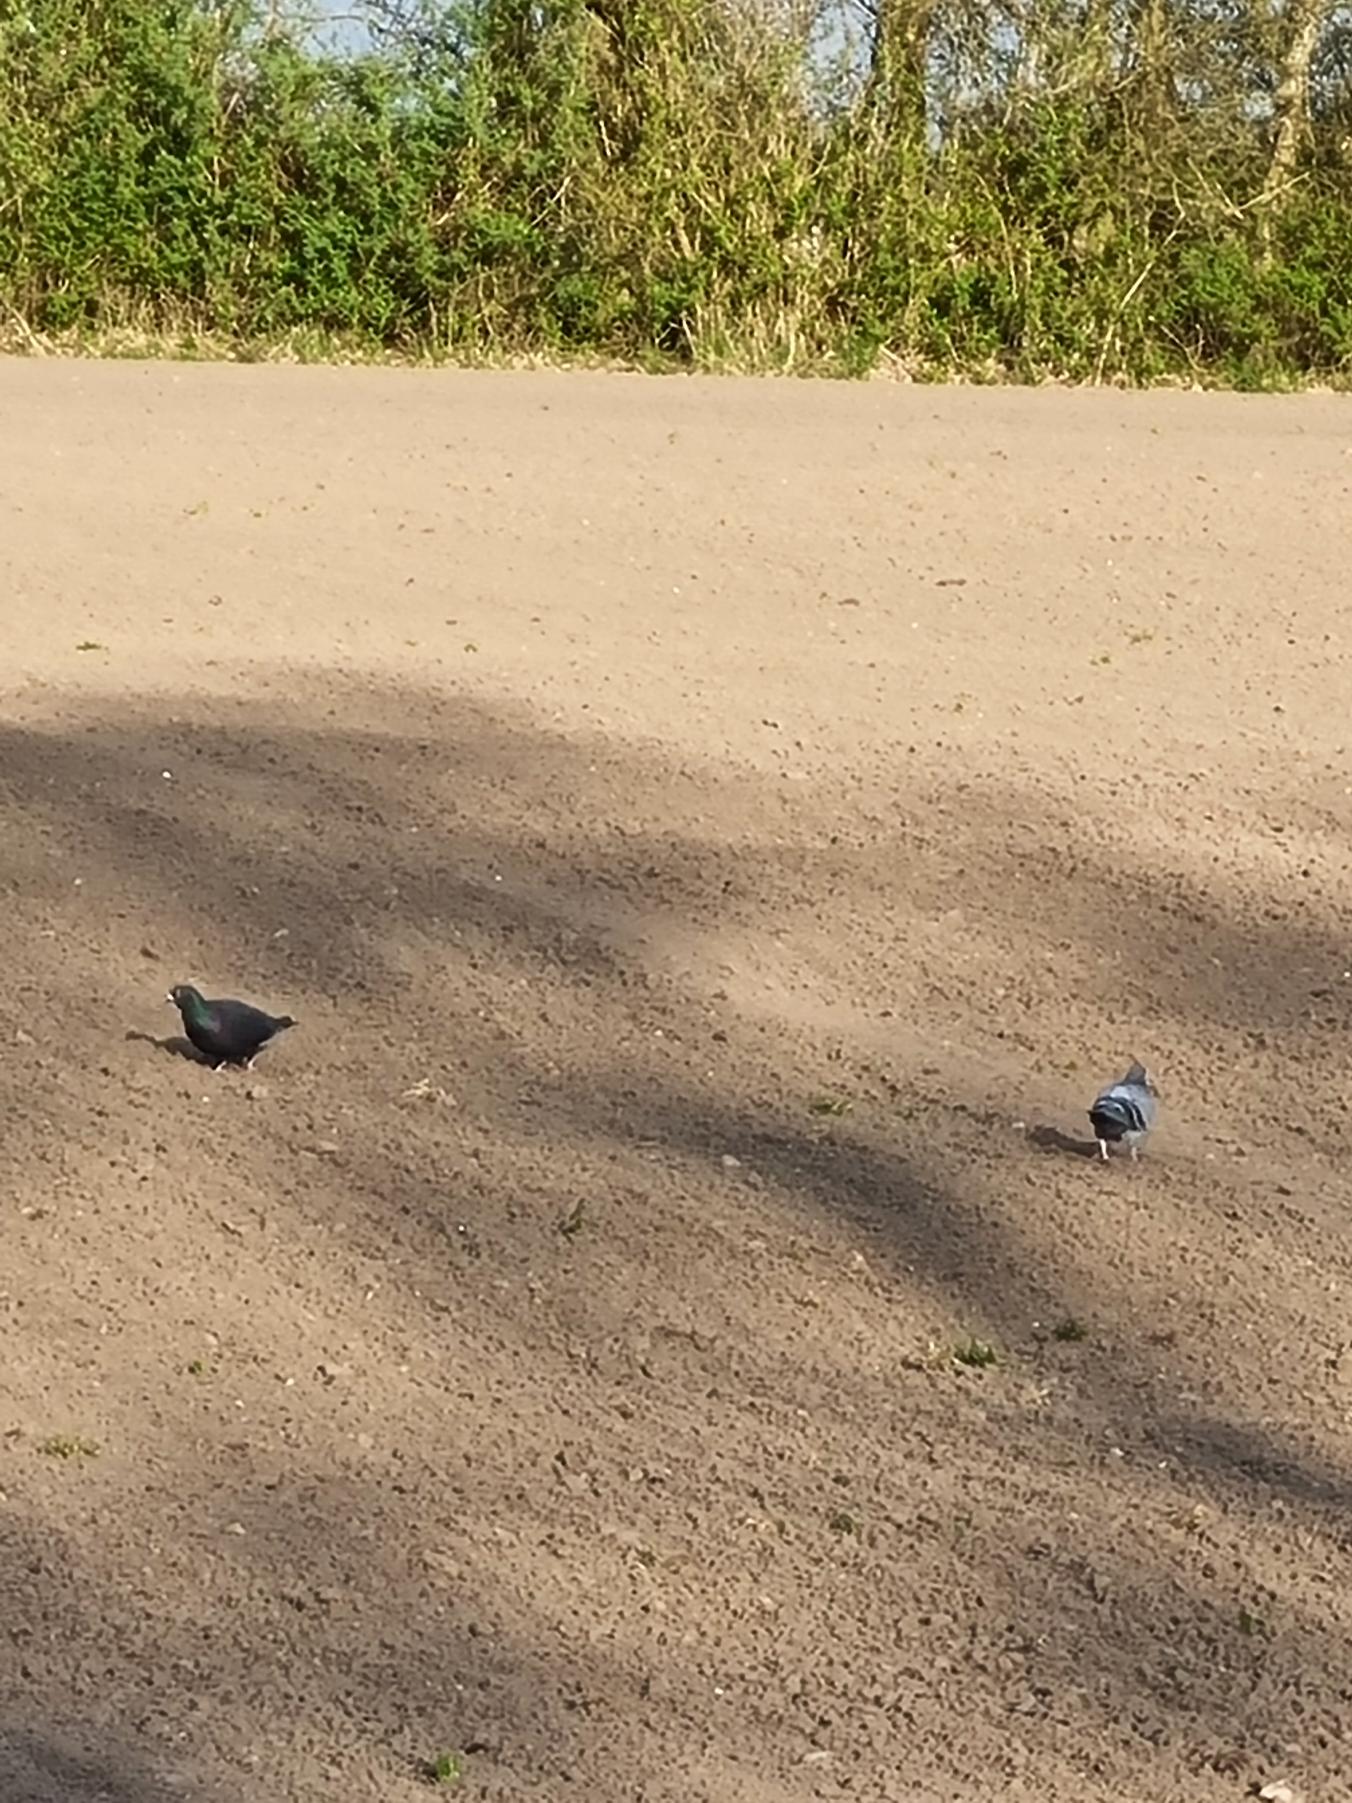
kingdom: Animalia
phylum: Chordata
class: Aves
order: Columbiformes
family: Columbidae
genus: Columba
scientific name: Columba livia
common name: Klippedue
